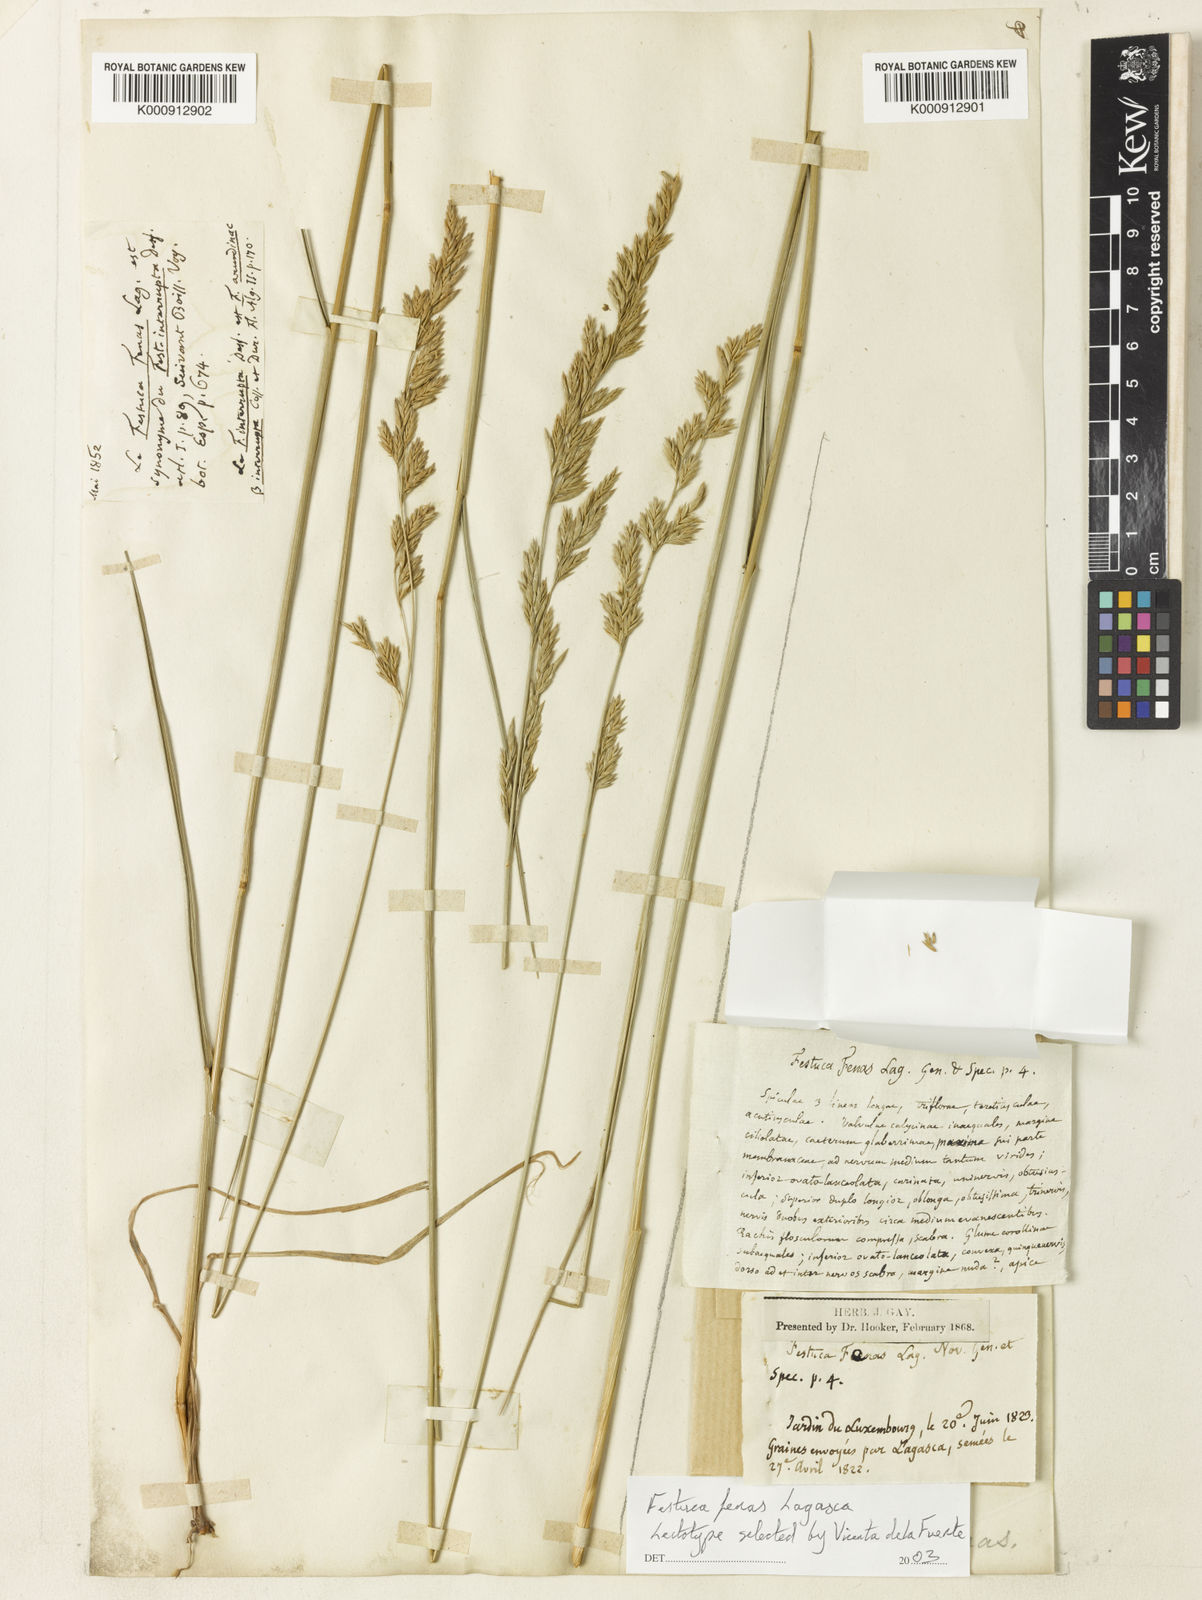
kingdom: Plantae
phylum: Tracheophyta
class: Liliopsida
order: Poales
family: Poaceae
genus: Lolium
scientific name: Lolium arundinaceum
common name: Reed fescue
